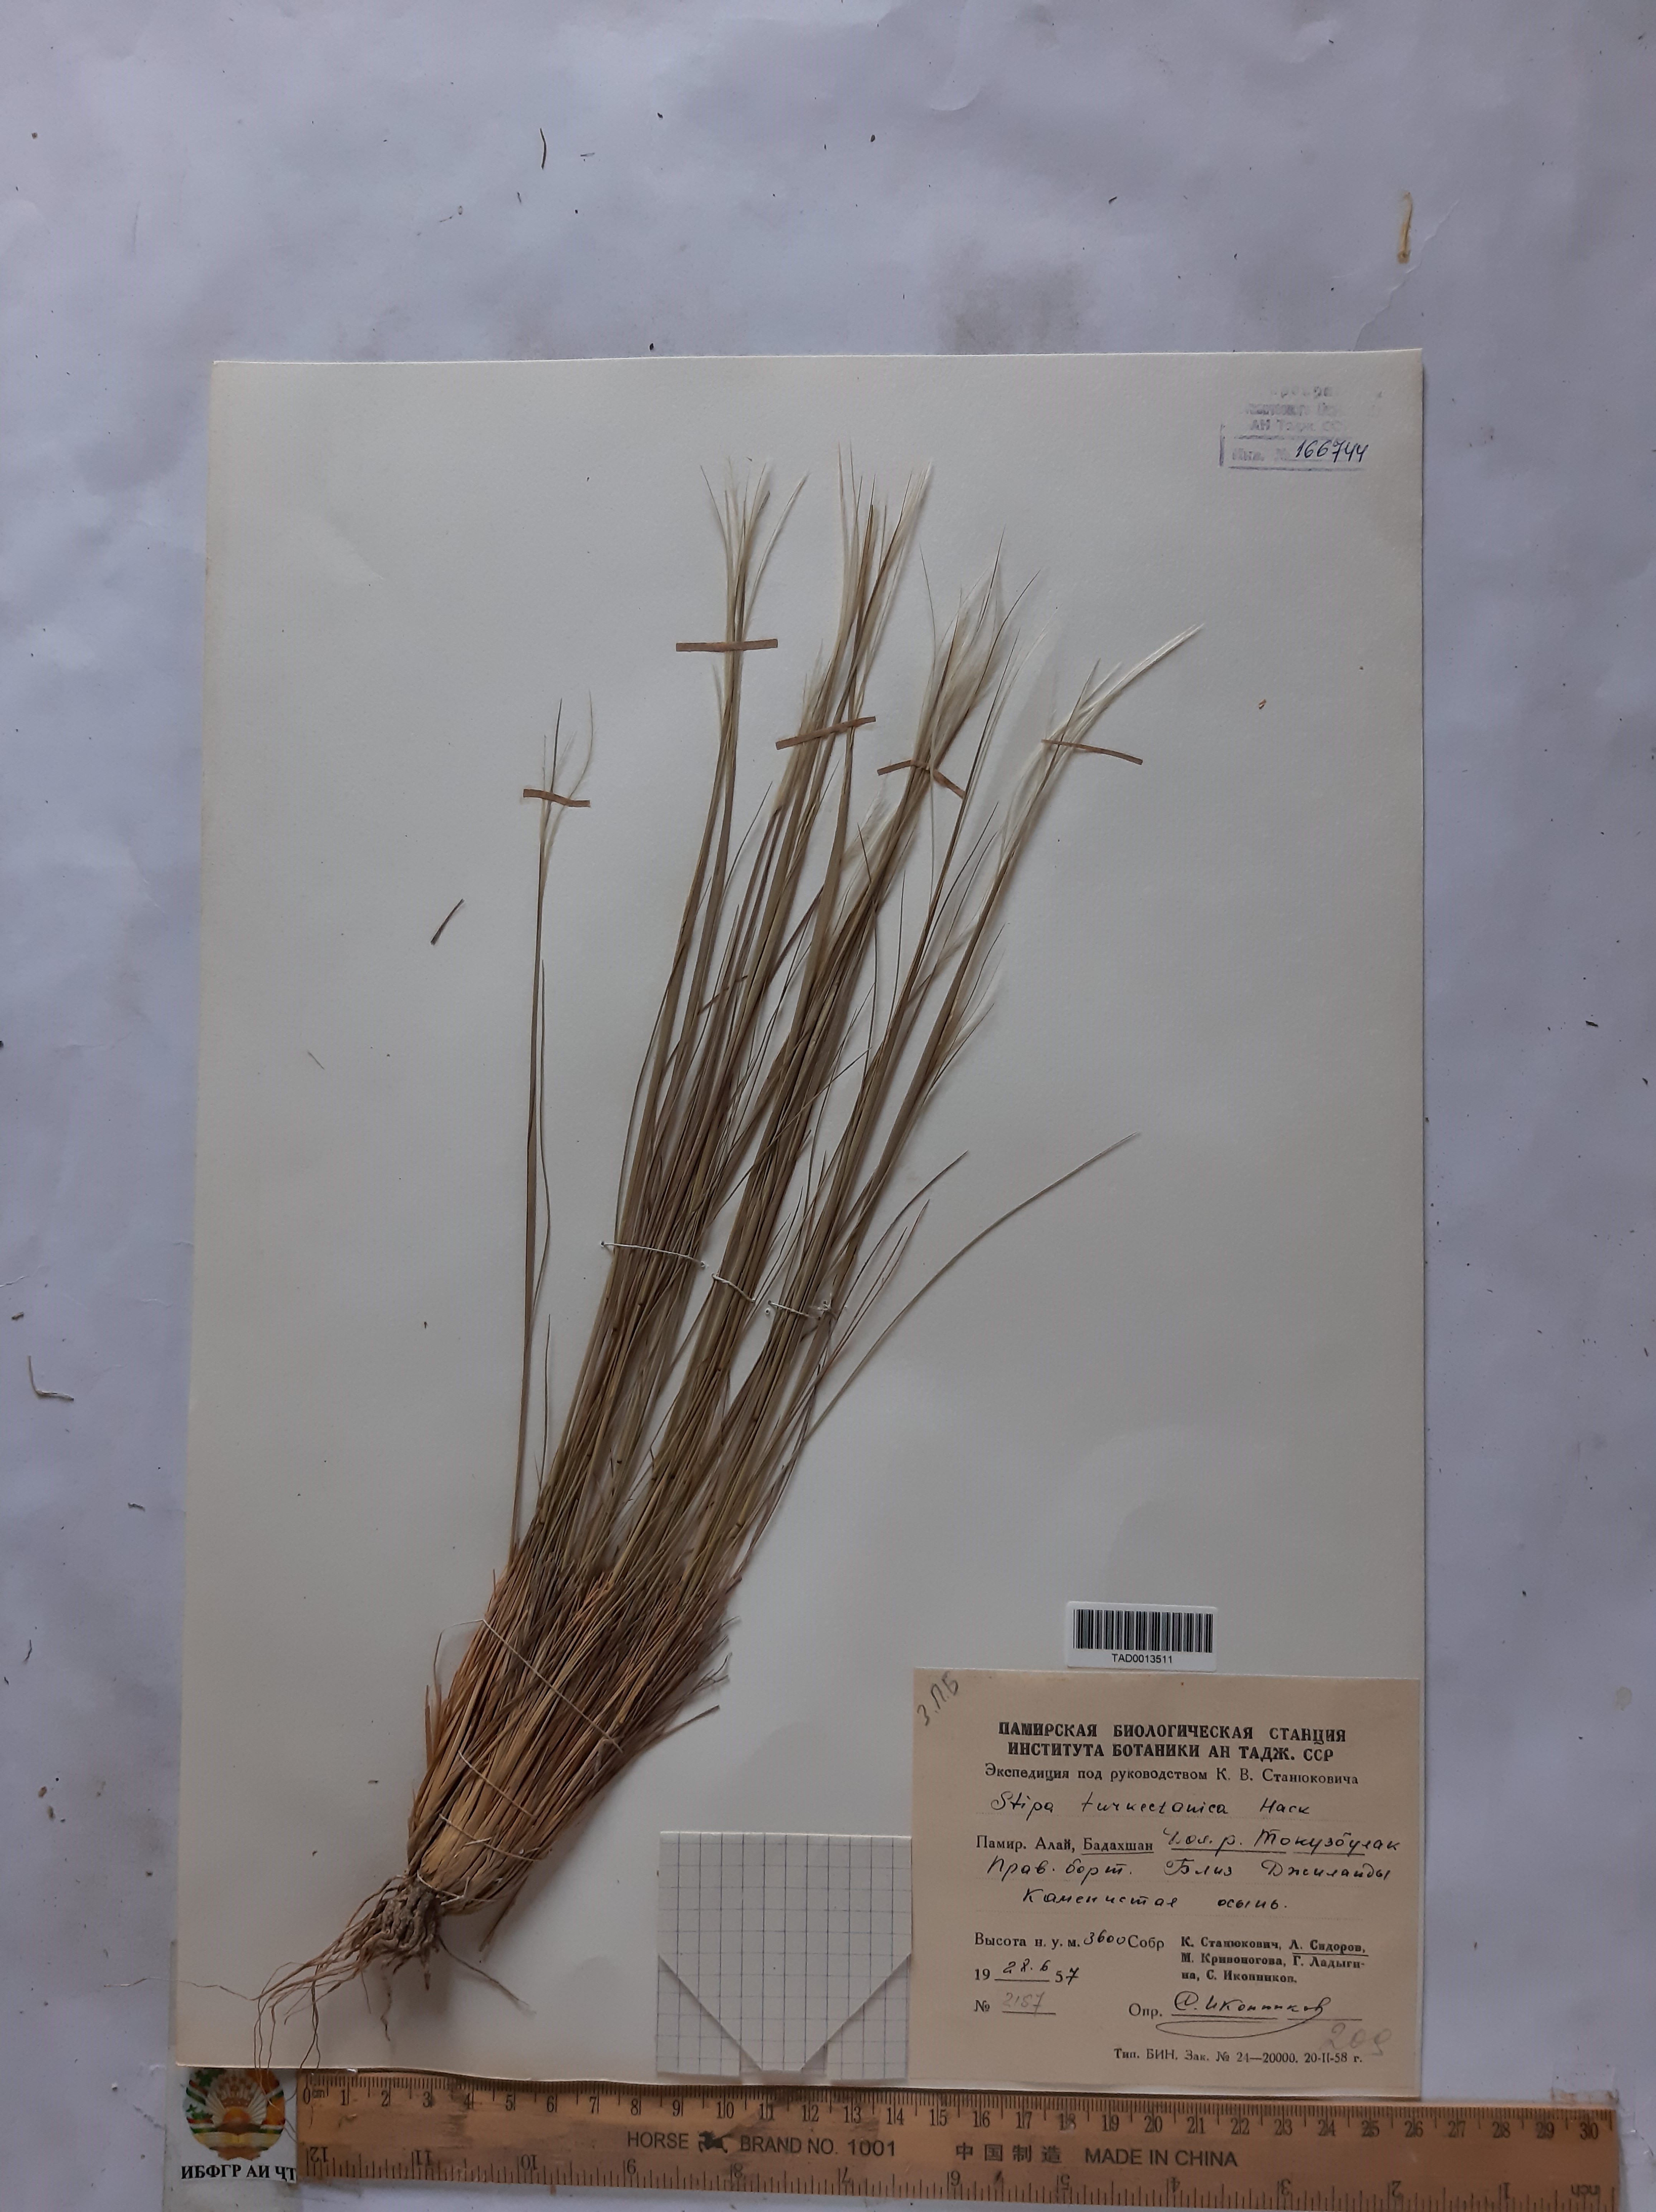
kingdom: Plantae
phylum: Tracheophyta
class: Liliopsida
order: Poales
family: Poaceae
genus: Stipa
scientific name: Stipa turkestanica
